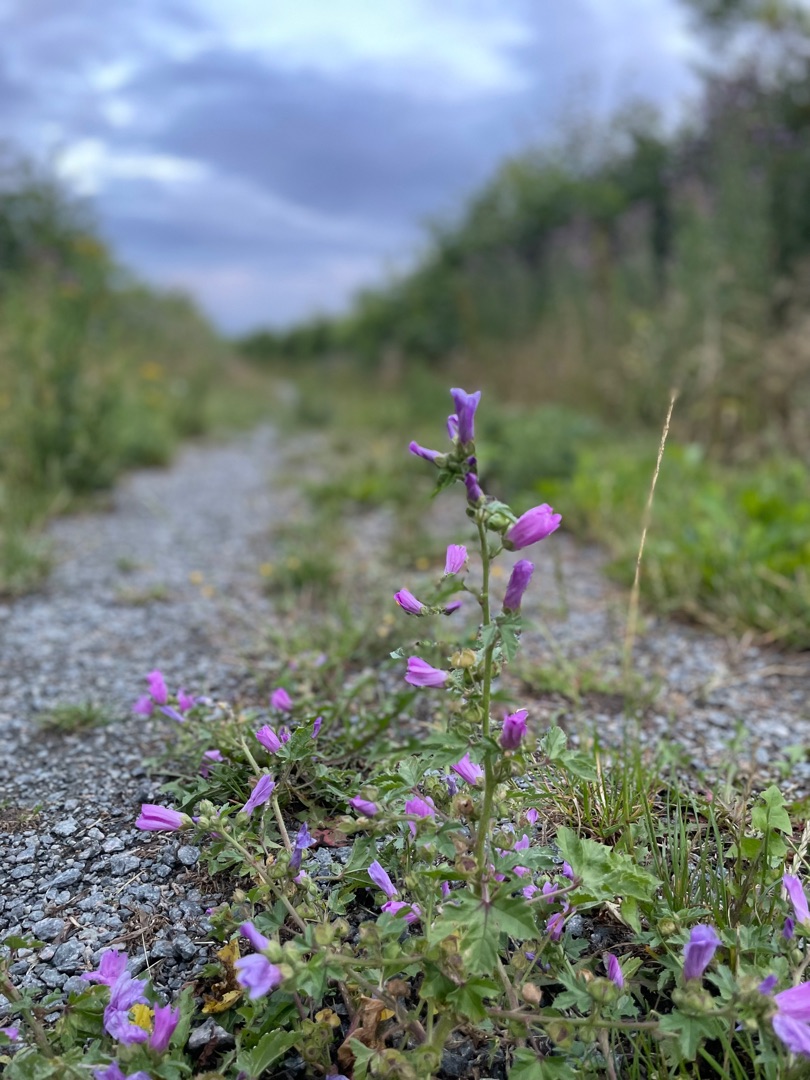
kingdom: Plantae
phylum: Tracheophyta
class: Magnoliopsida
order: Malvales
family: Malvaceae
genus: Malva
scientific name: Malva sylvestris
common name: Almindelig katost
